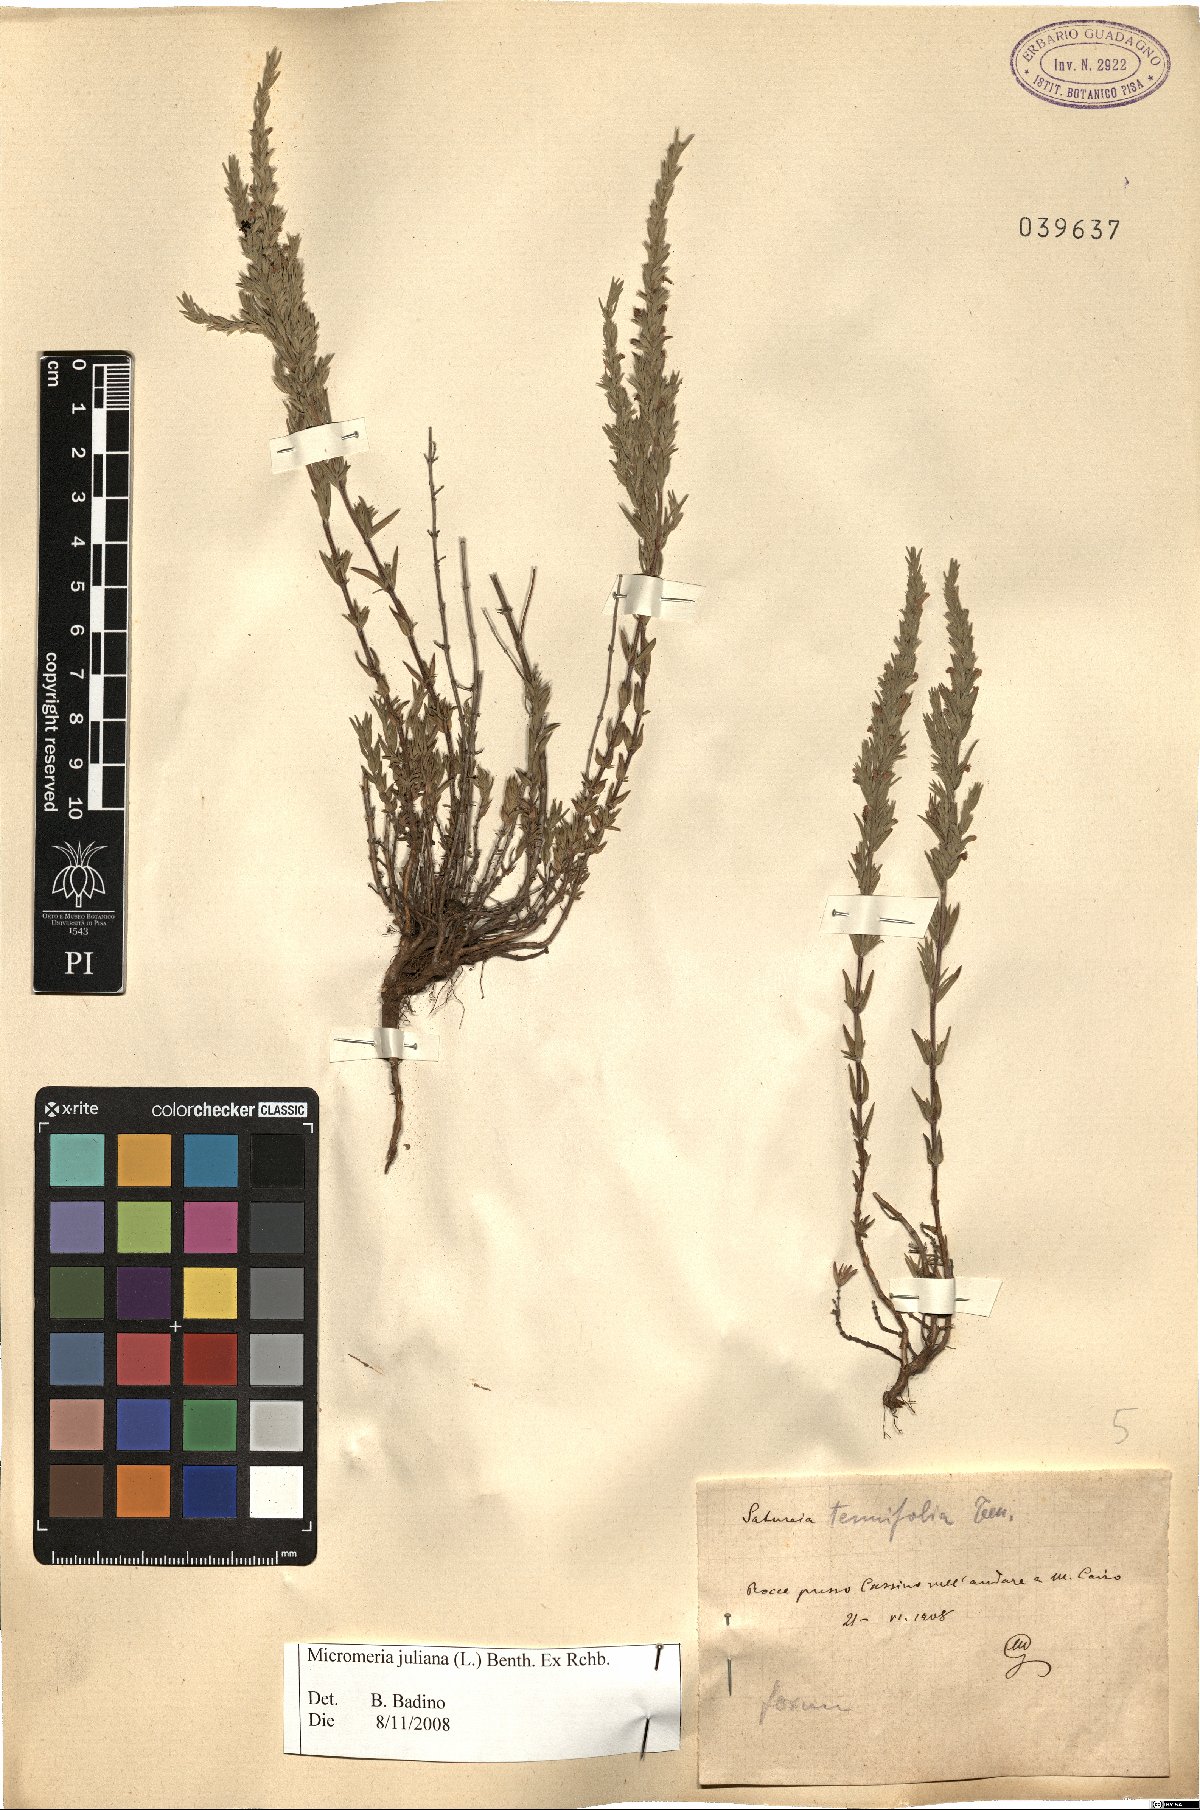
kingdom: Plantae
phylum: Tracheophyta
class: Magnoliopsida
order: Lamiales
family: Lamiaceae
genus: Micromeria
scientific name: Micromeria juliana
